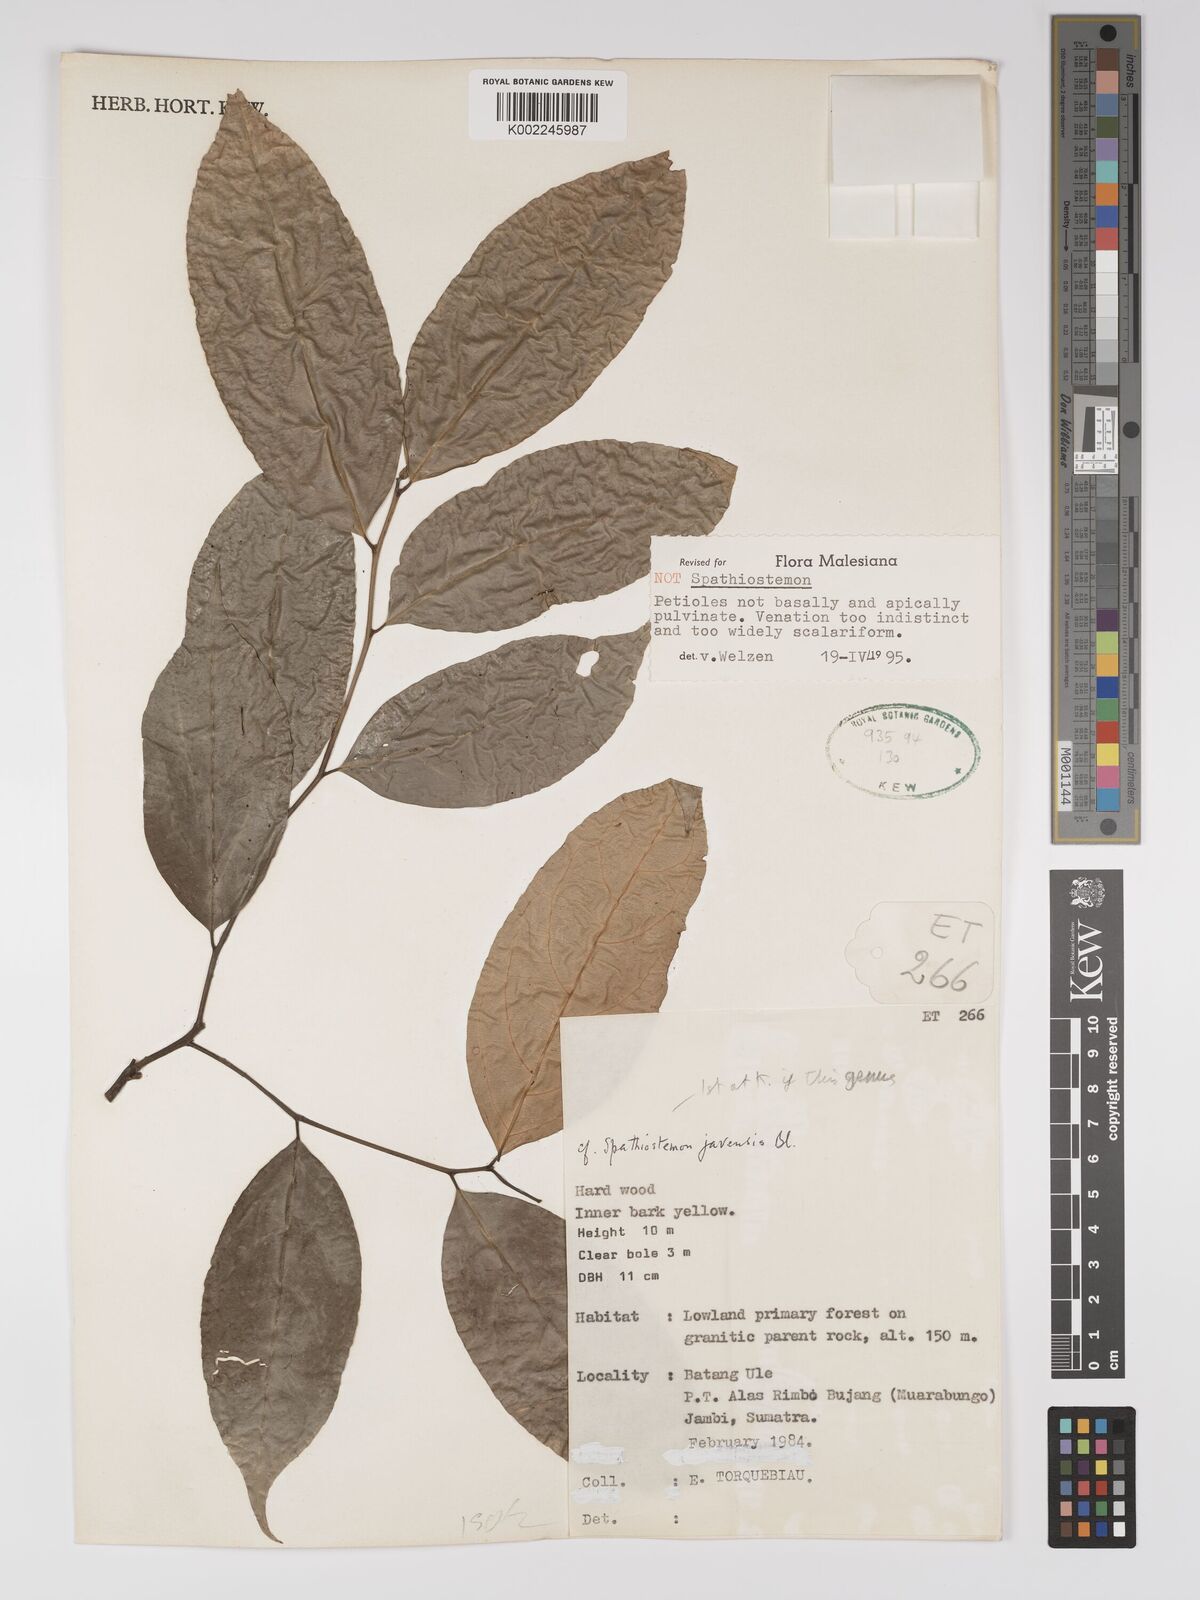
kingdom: Plantae
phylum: Tracheophyta
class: Magnoliopsida
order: Malpighiales
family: Euphorbiaceae
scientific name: Euphorbiaceae
